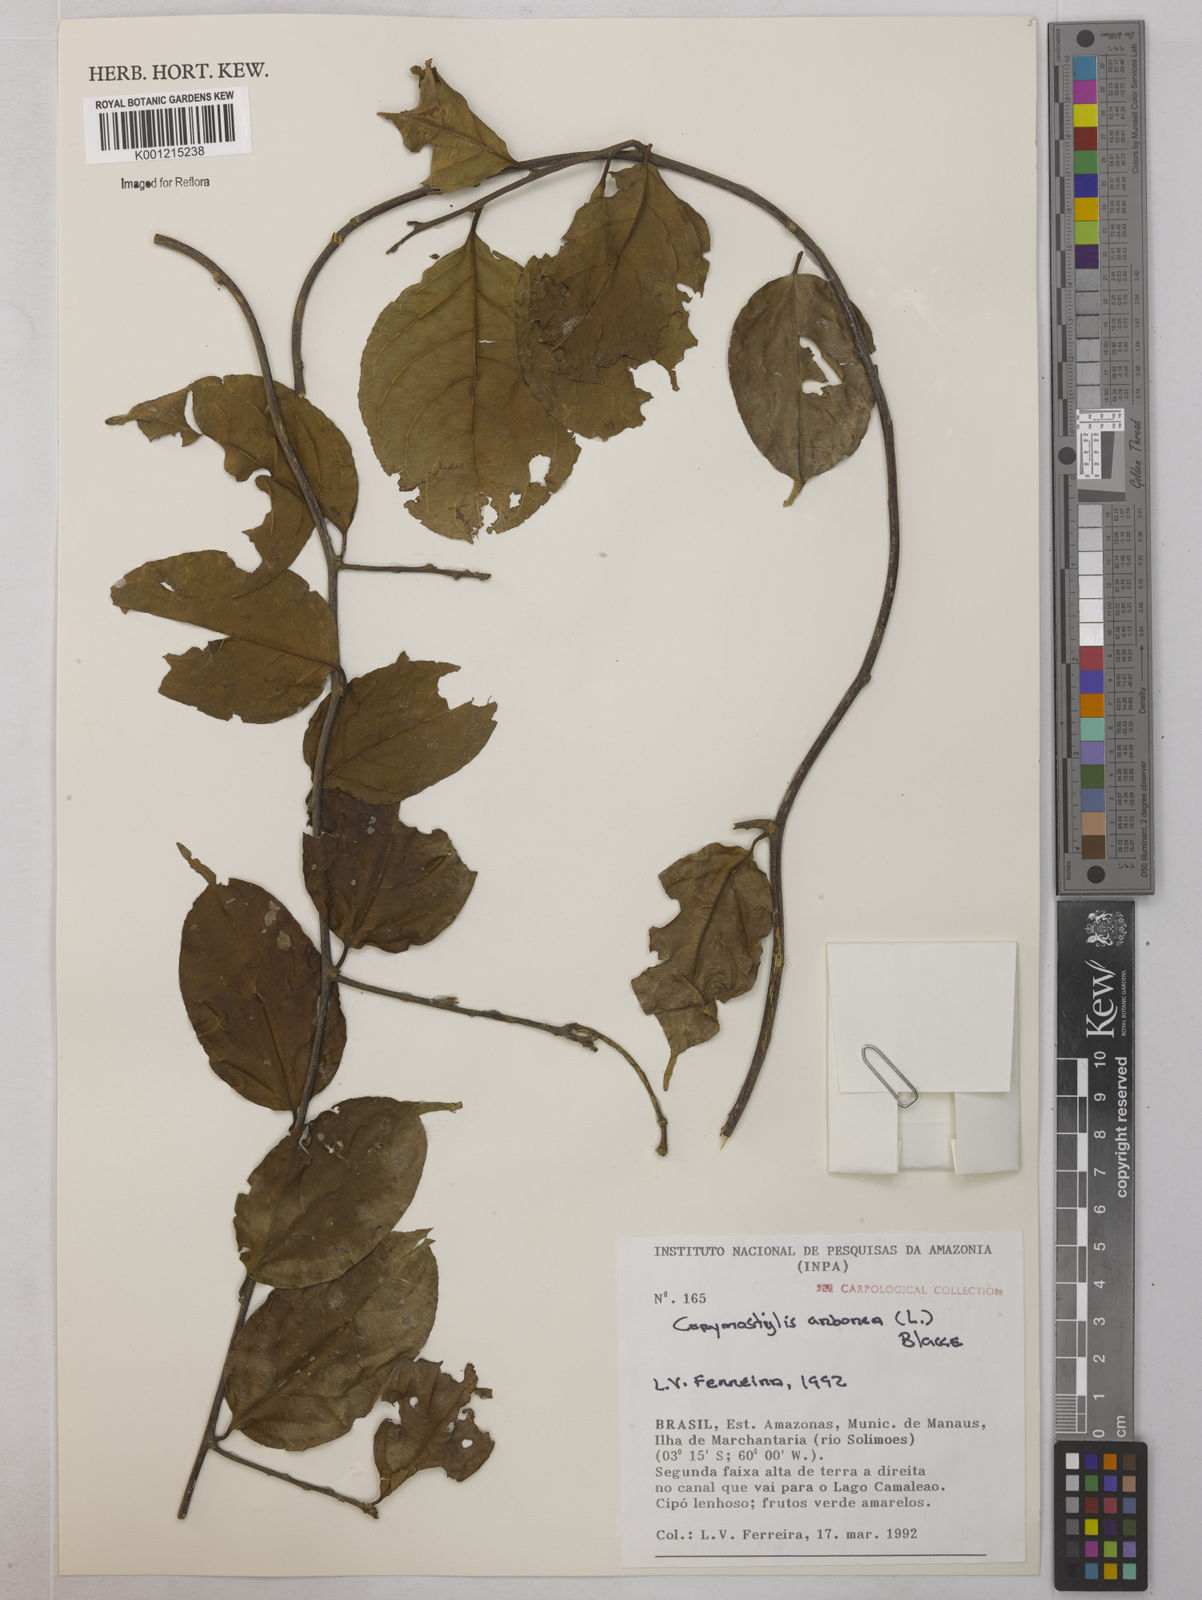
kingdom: Plantae
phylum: Tracheophyta
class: Magnoliopsida
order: Malpighiales
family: Violaceae
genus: Calyptrion
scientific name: Calyptrion arboreum
